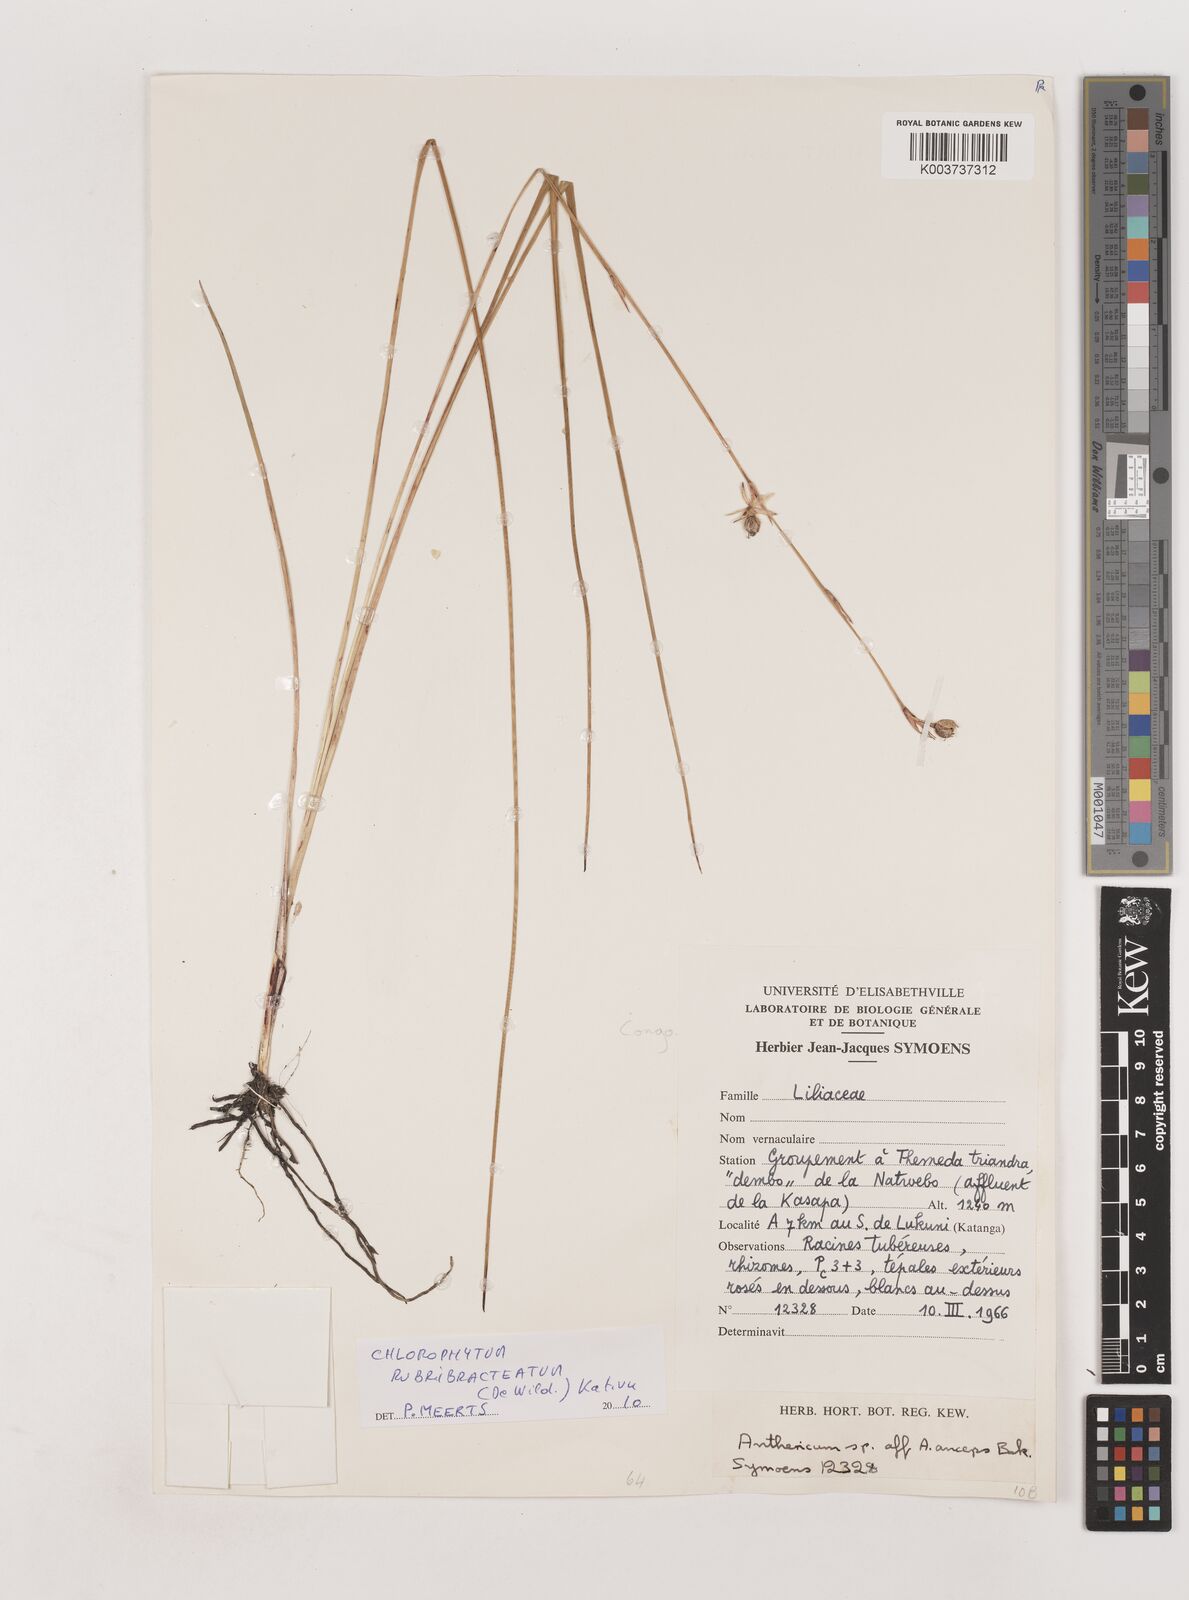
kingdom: Plantae
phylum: Tracheophyta
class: Liliopsida
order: Asparagales
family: Asparagaceae
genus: Chlorophytum
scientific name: Chlorophytum rubribracteatum
